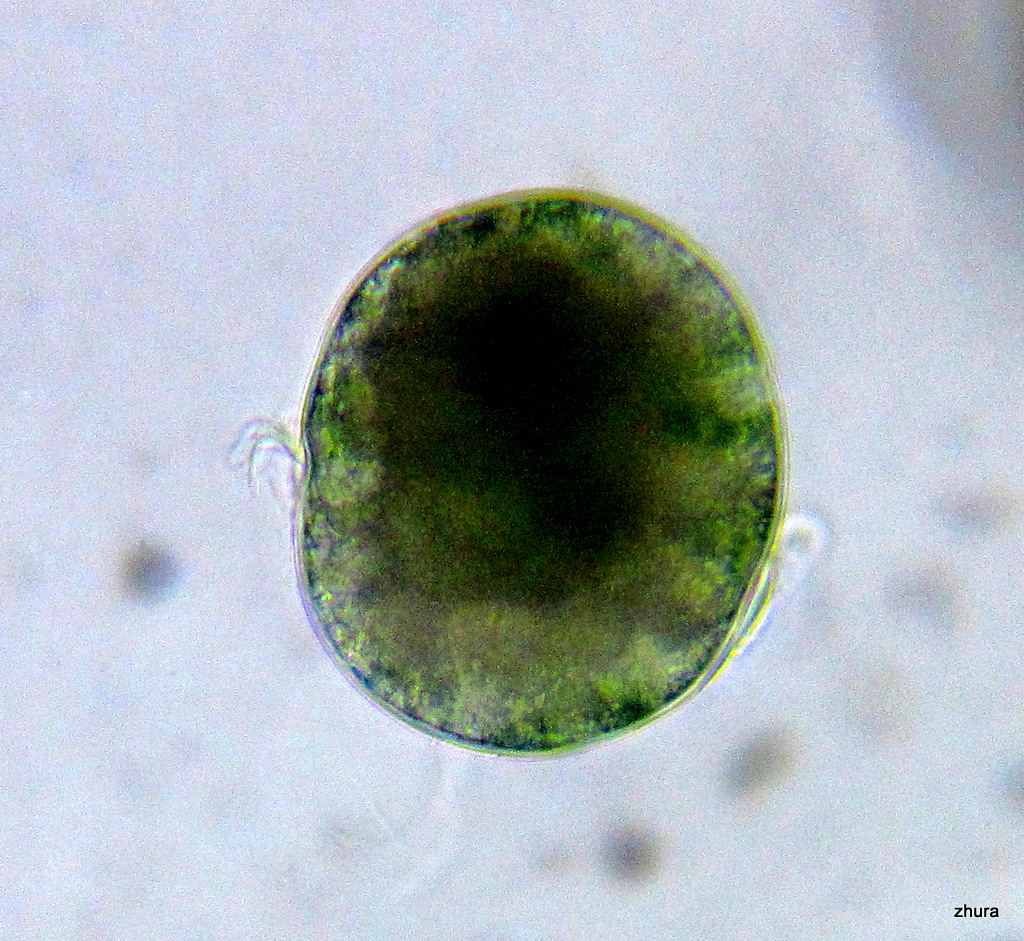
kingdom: Animalia
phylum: Annelida
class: Polychaeta
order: Phyllodocida
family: Phyllodocidae
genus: Phyllodoce
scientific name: Phyllodoce maculata
